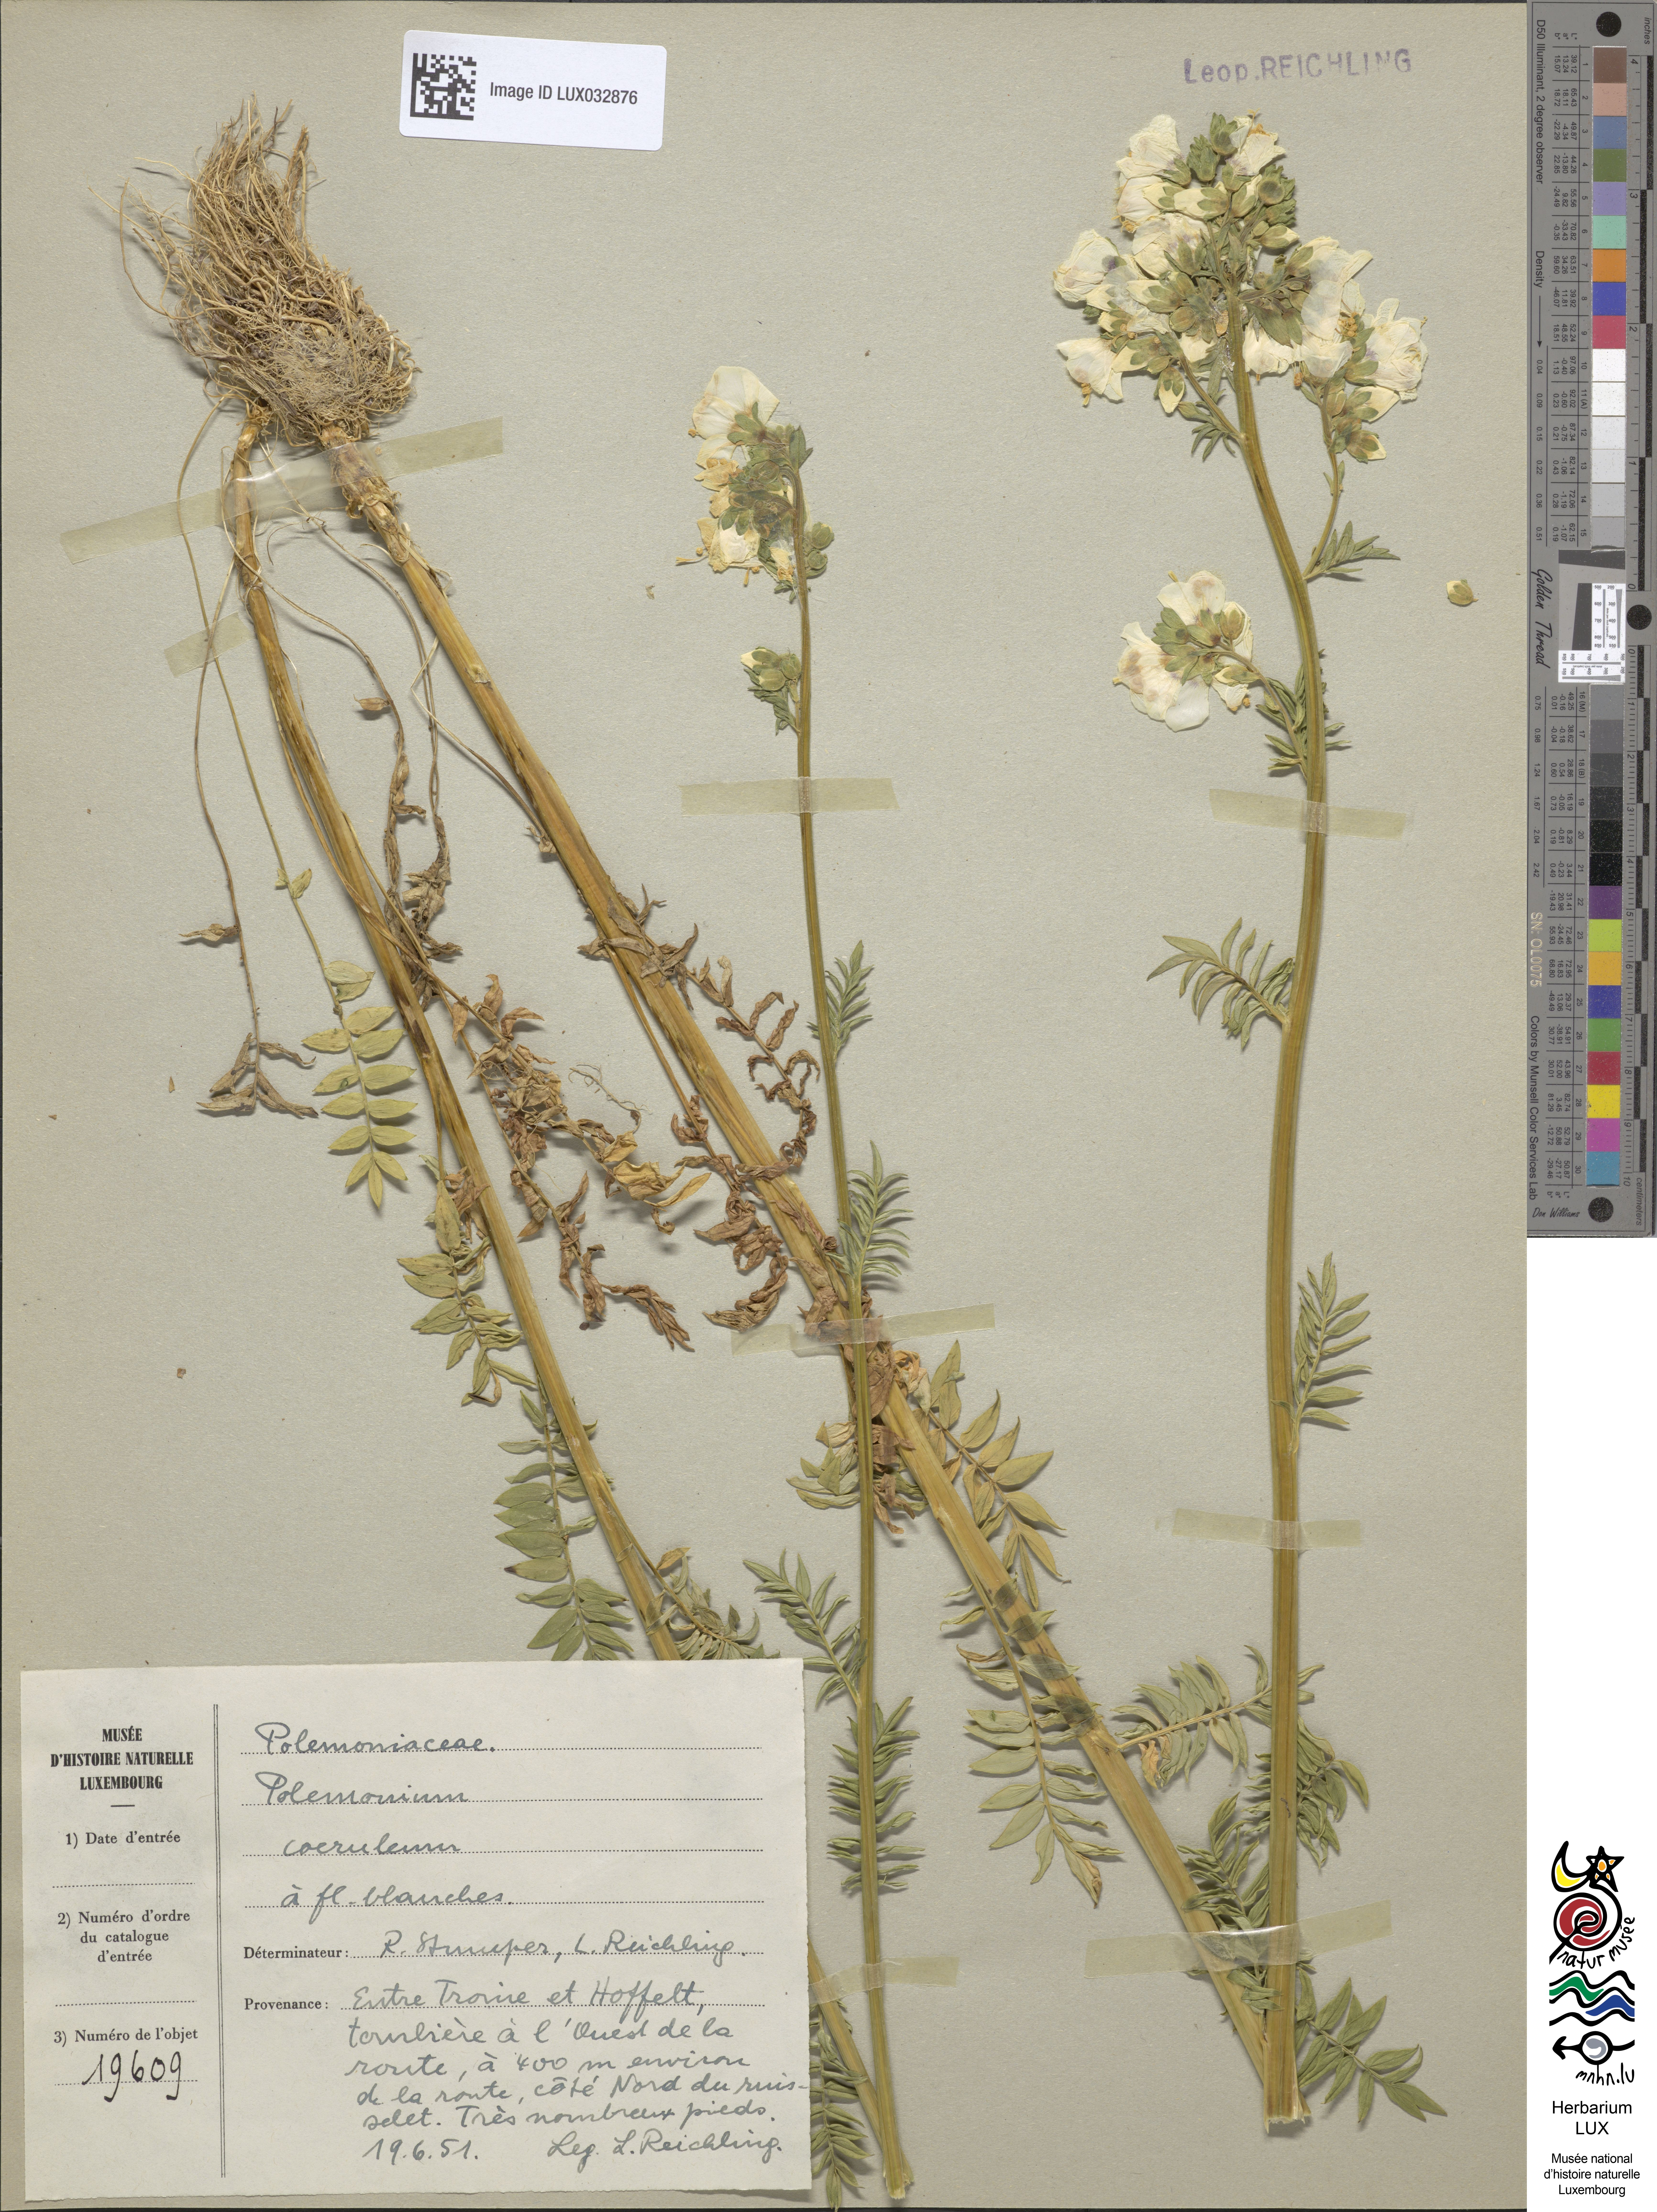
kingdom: Plantae
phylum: Tracheophyta
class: Magnoliopsida
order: Ericales
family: Polemoniaceae
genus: Polemonium
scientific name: Polemonium caeruleum
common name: Jacob's-ladder
